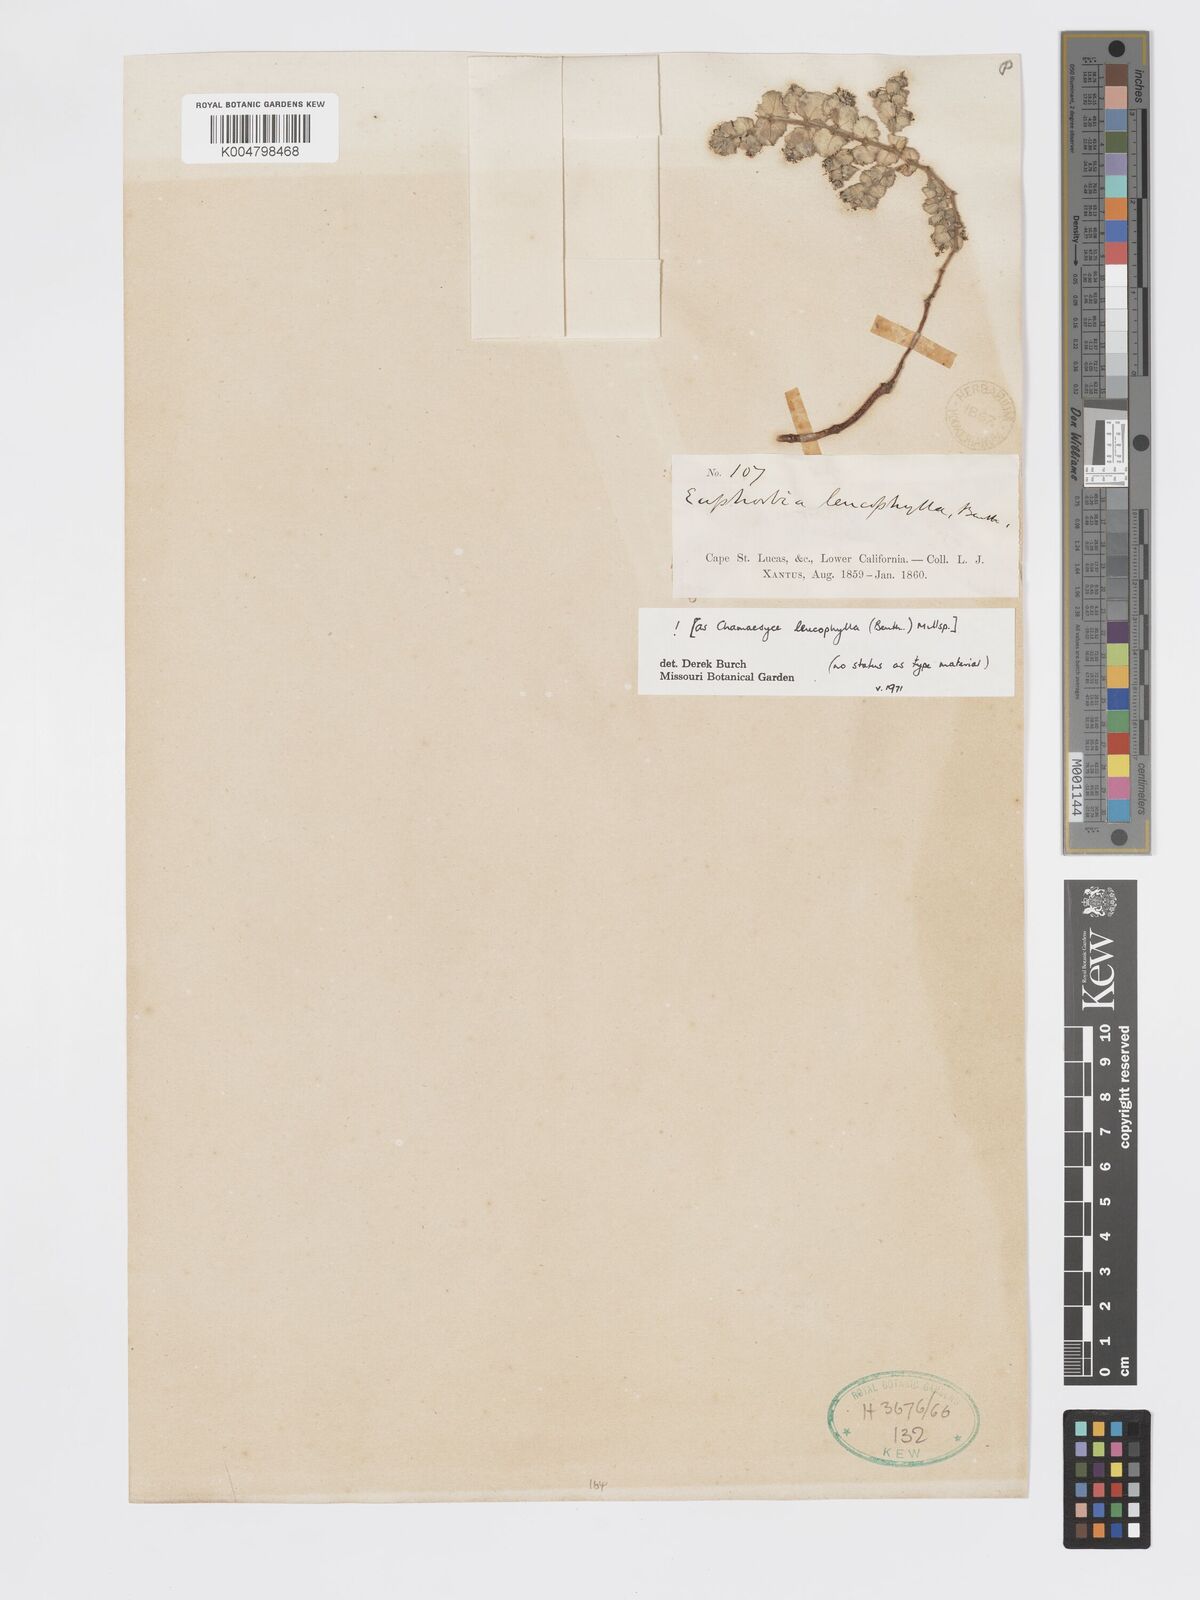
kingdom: Plantae
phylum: Tracheophyta
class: Magnoliopsida
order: Malpighiales
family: Euphorbiaceae
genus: Euphorbia
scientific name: Euphorbia leucophylla
